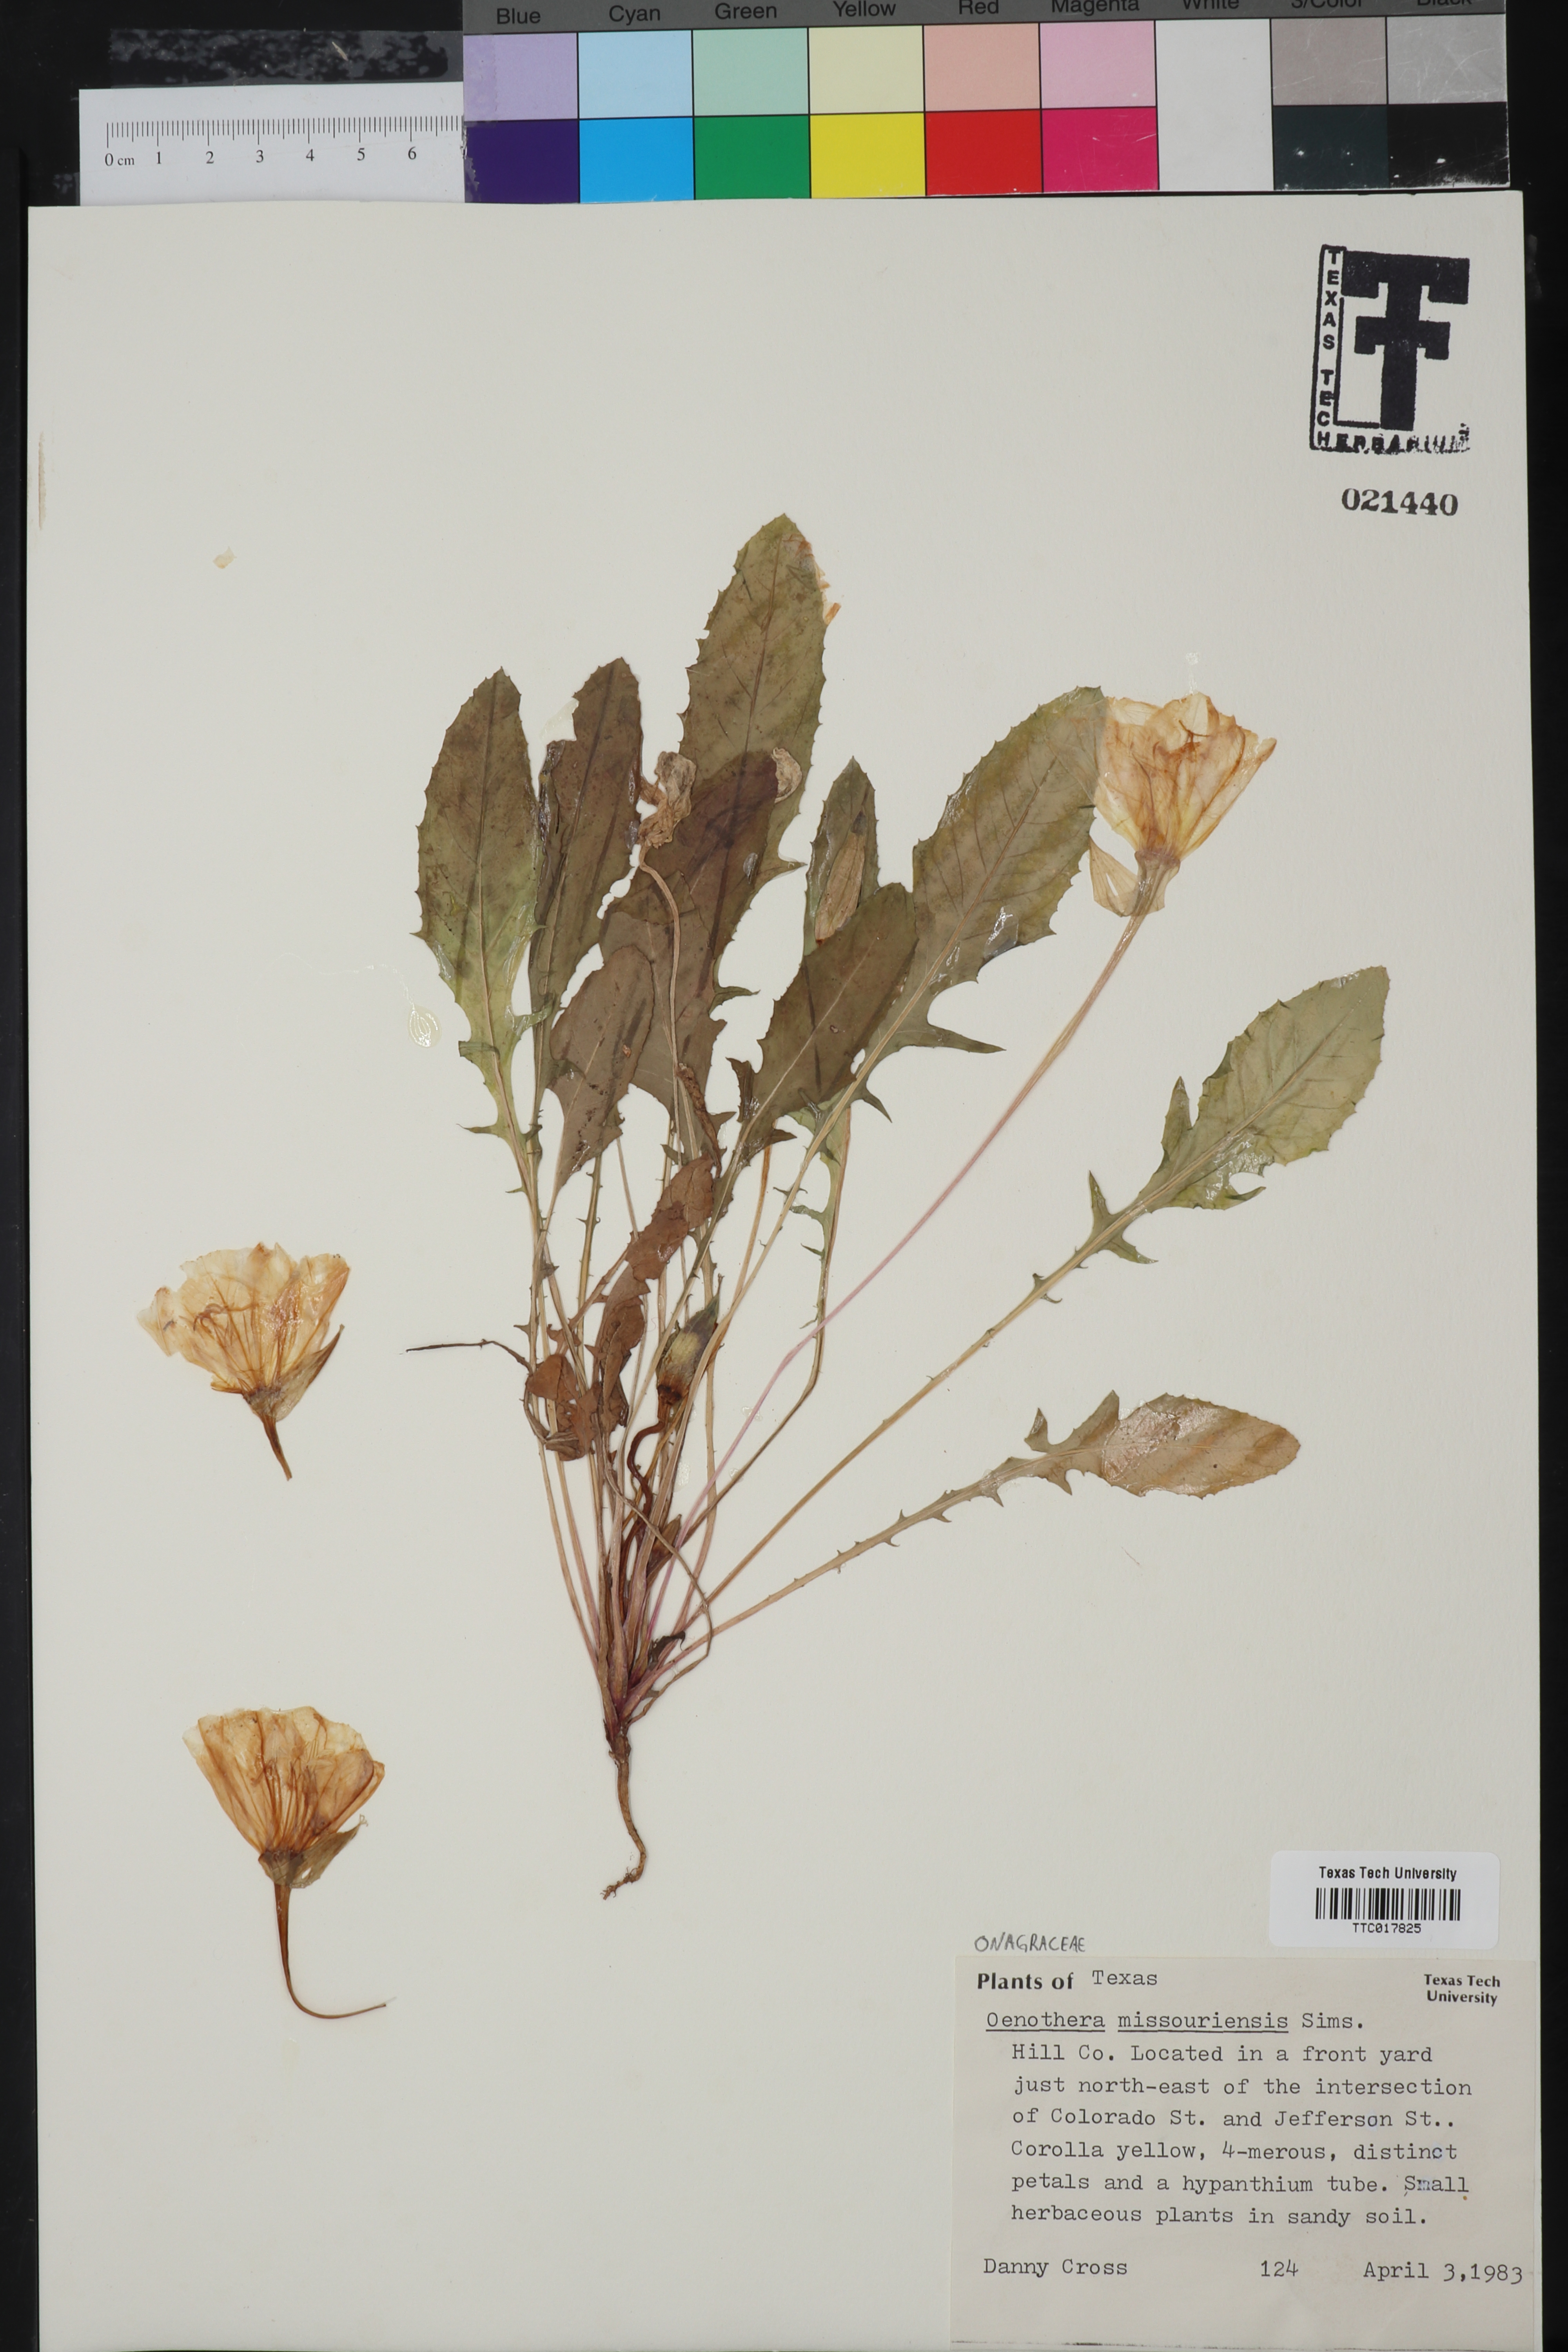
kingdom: Plantae
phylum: Tracheophyta
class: Magnoliopsida
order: Myrtales
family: Onagraceae
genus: Oenothera
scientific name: Oenothera macrocarpa
